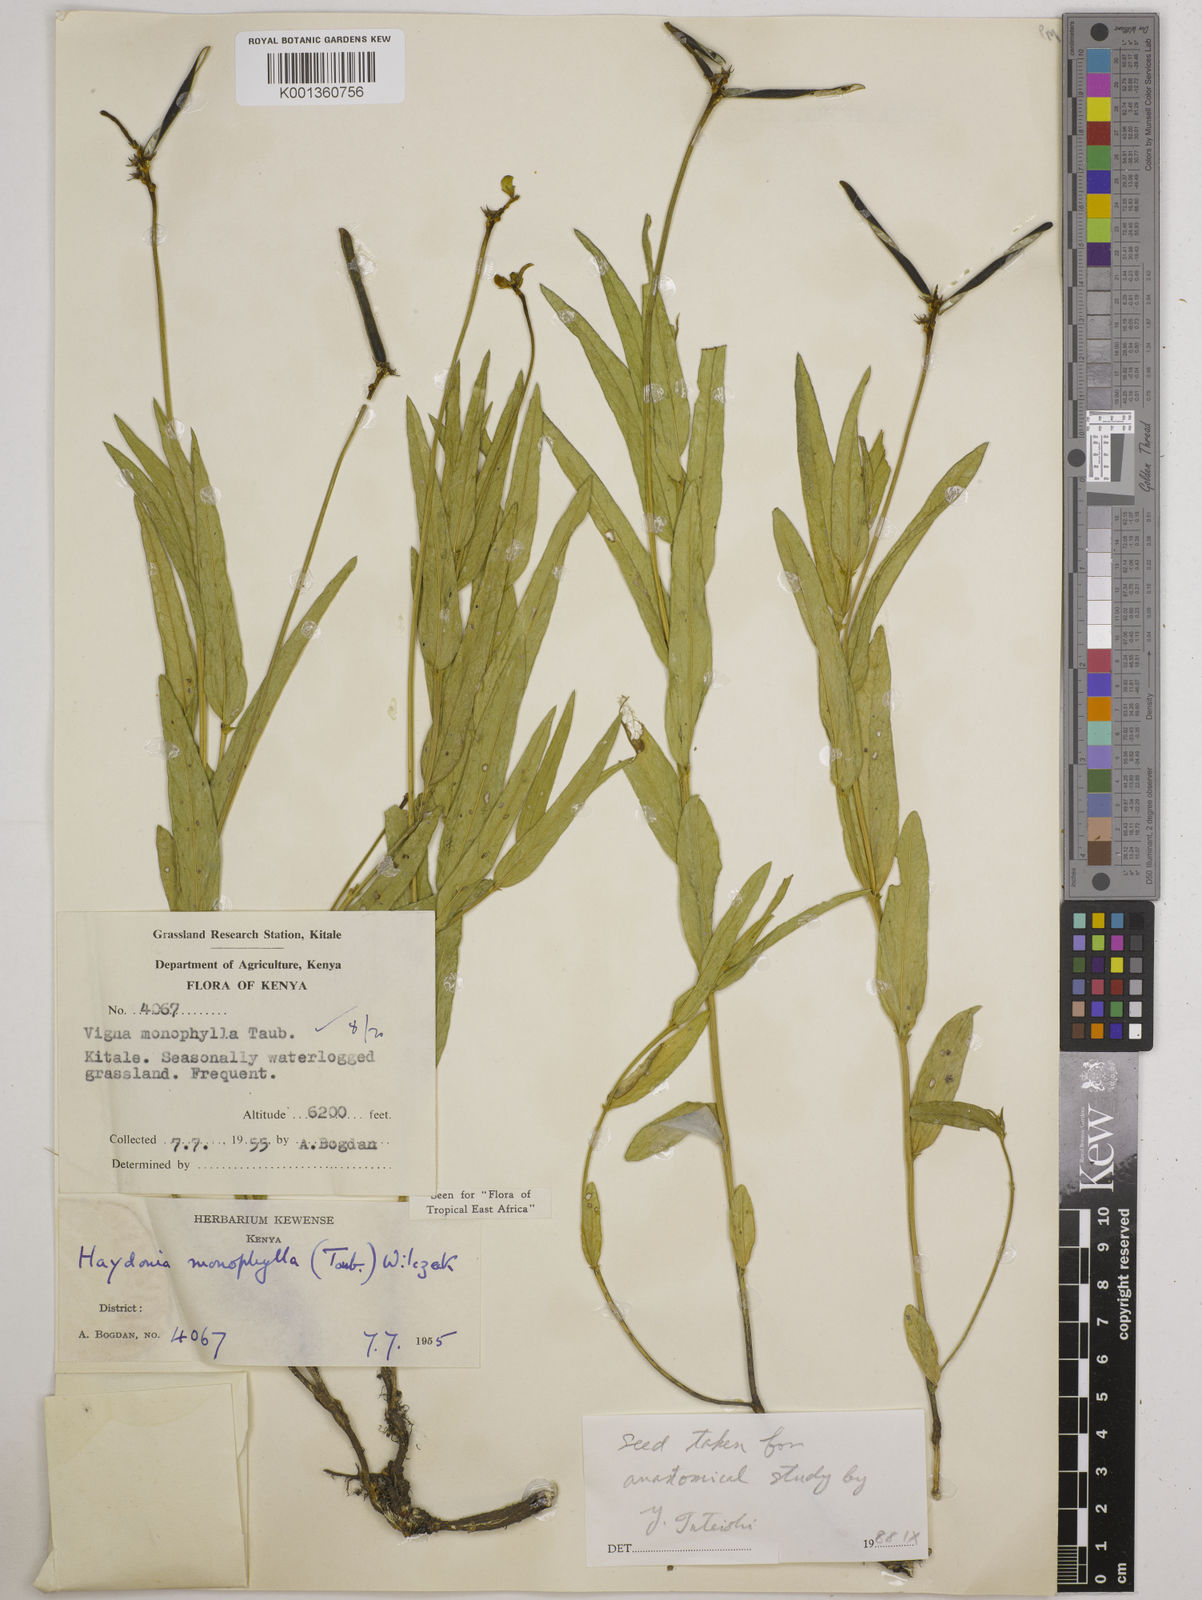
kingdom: Plantae
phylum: Tracheophyta
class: Magnoliopsida
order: Fabales
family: Fabaceae
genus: Vigna
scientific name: Vigna monophylla
